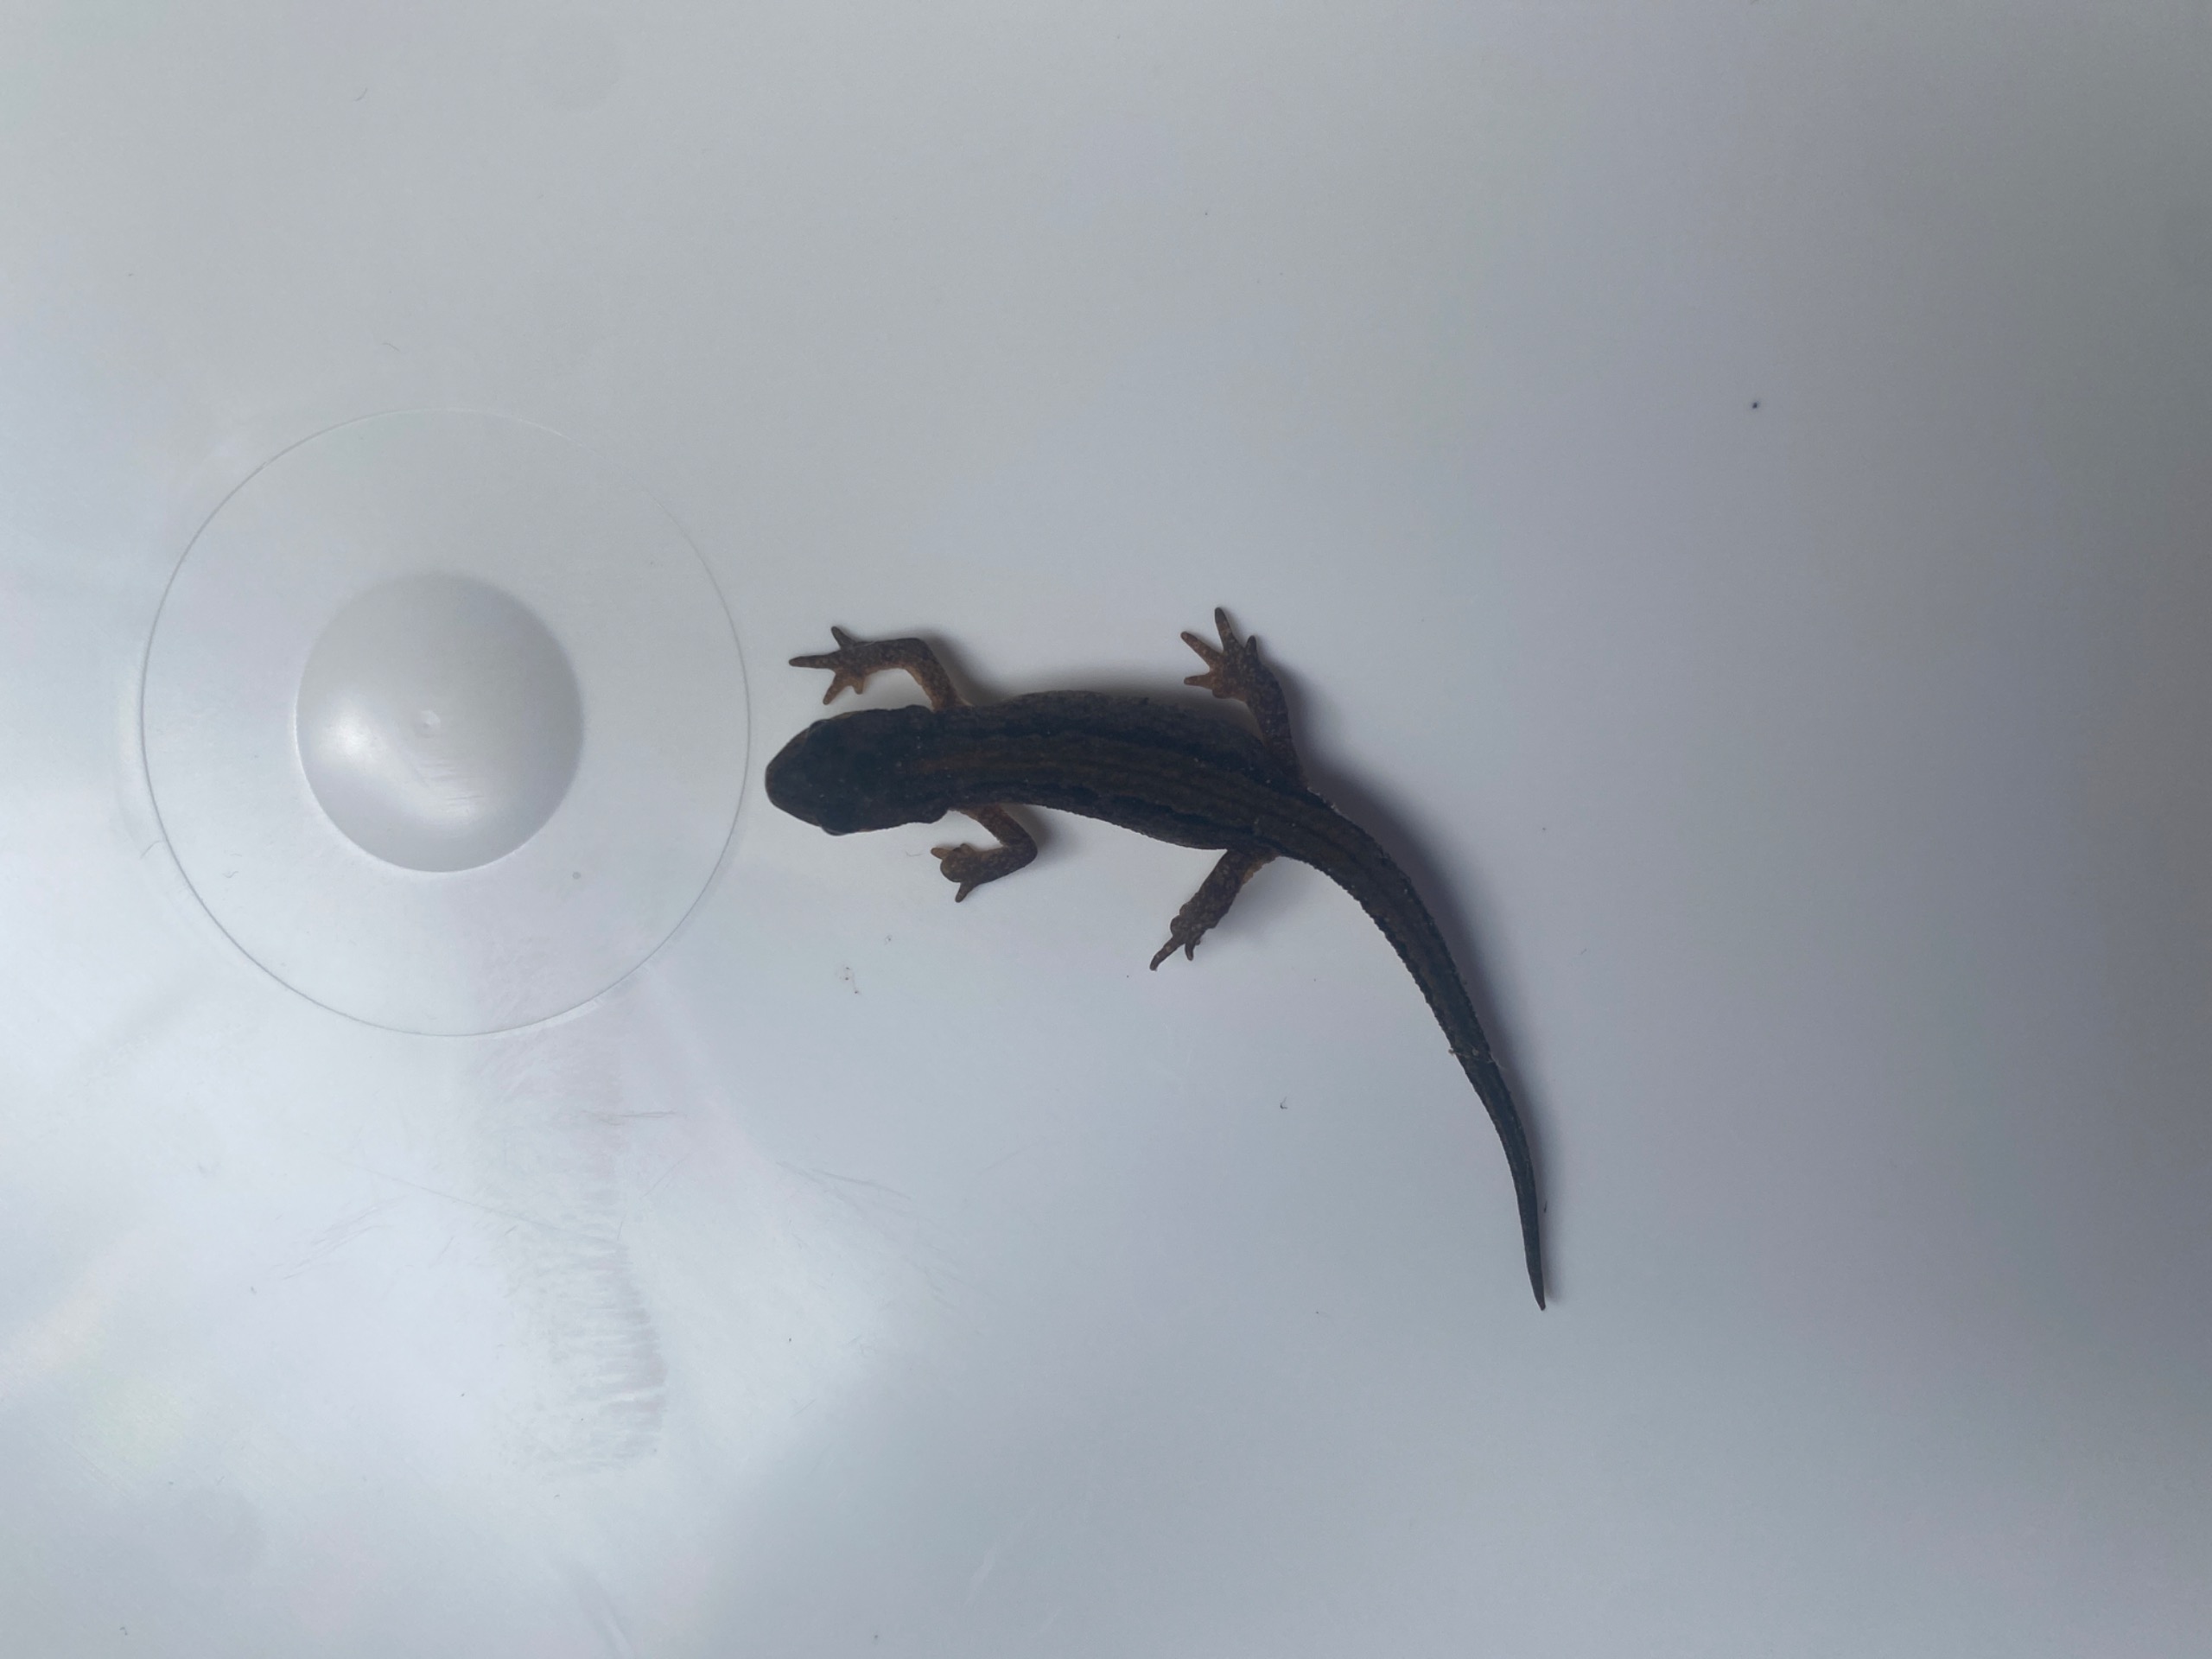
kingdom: Animalia
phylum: Chordata
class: Amphibia
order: Caudata
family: Salamandridae
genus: Lissotriton
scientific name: Lissotriton vulgaris
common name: Lille vandsalamander
